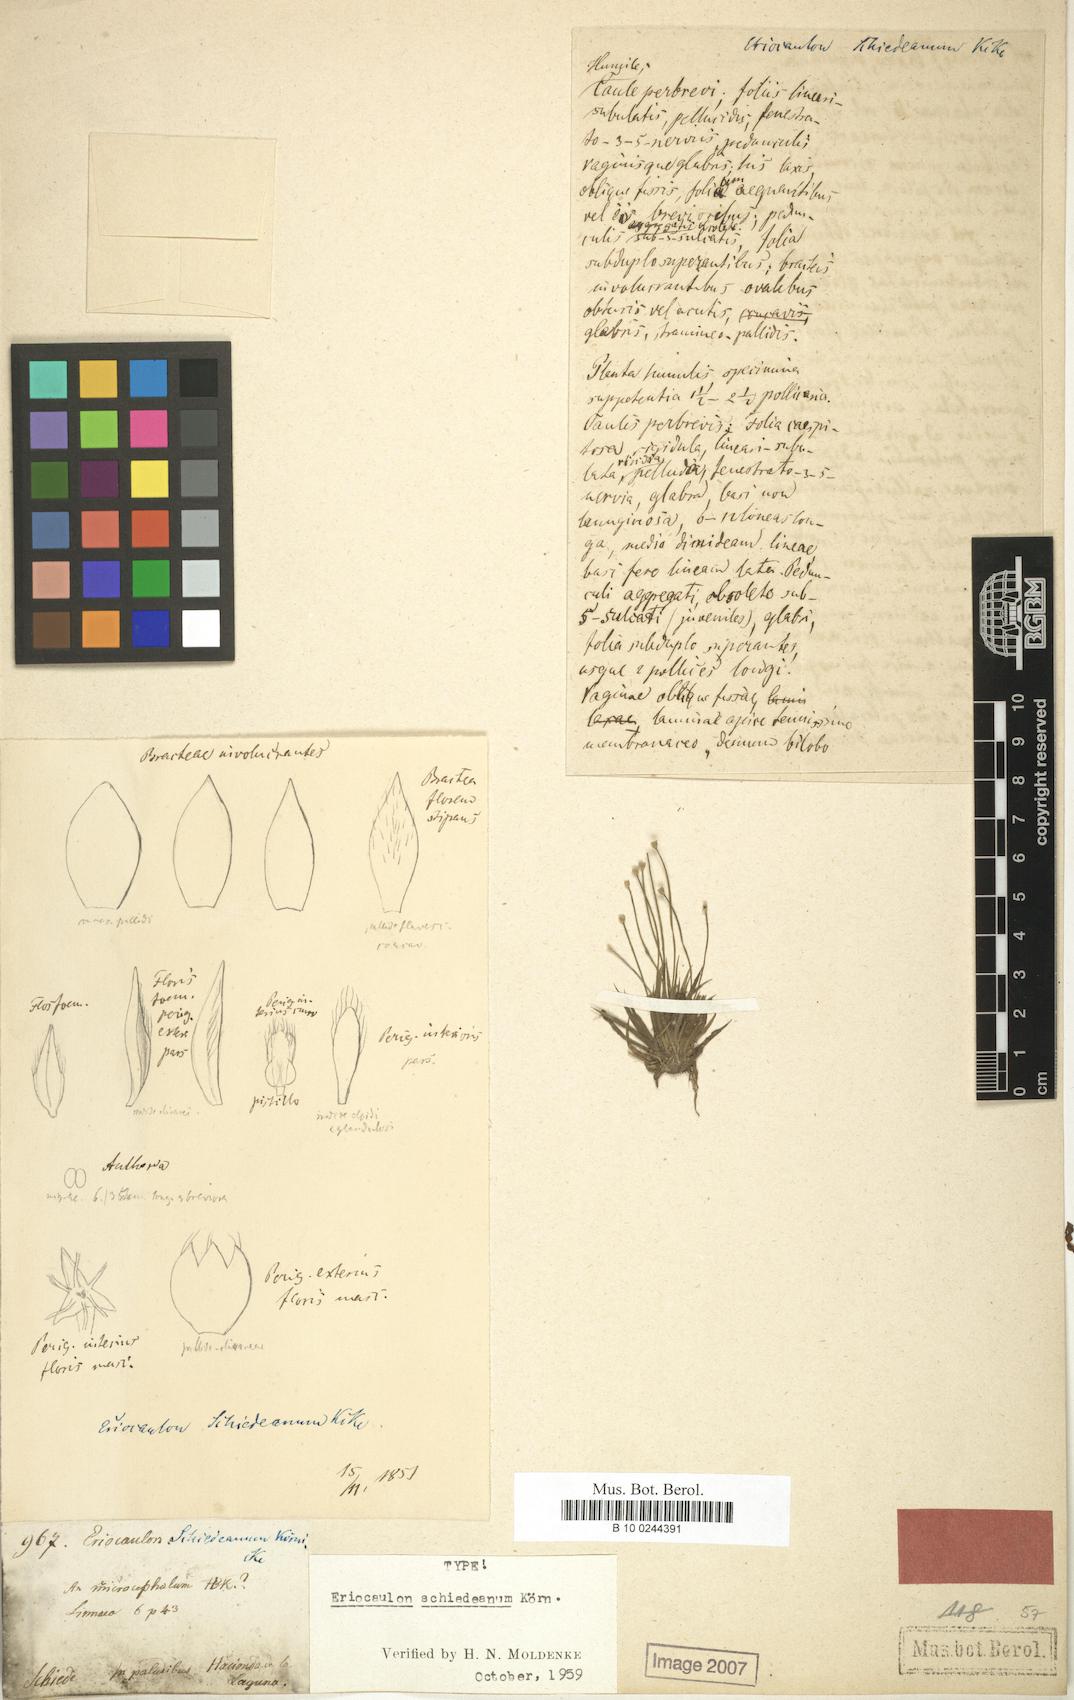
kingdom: Plantae
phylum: Tracheophyta
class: Liliopsida
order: Poales
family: Eriocaulaceae
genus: Eriocaulon
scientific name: Eriocaulon schiedeanum
